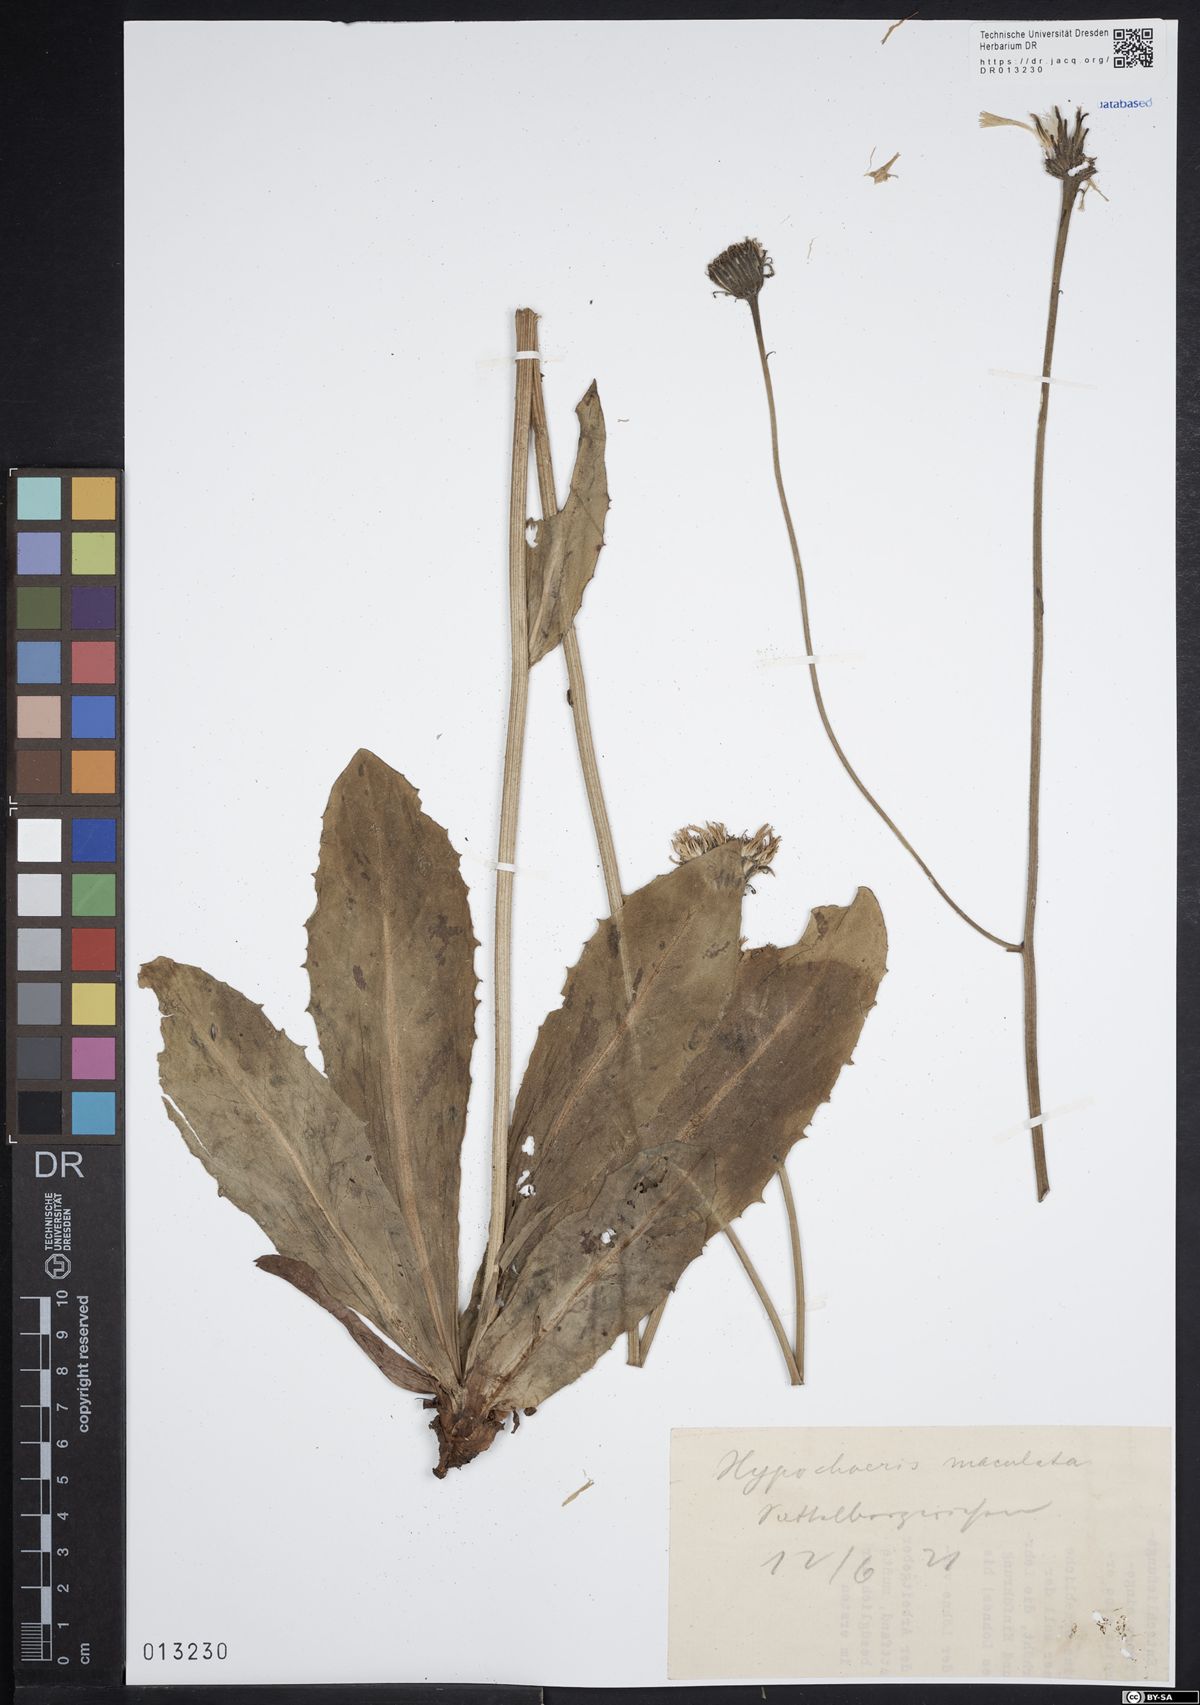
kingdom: Plantae
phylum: Tracheophyta
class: Magnoliopsida
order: Asterales
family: Asteraceae
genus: Trommsdorffia
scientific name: Trommsdorffia maculata
